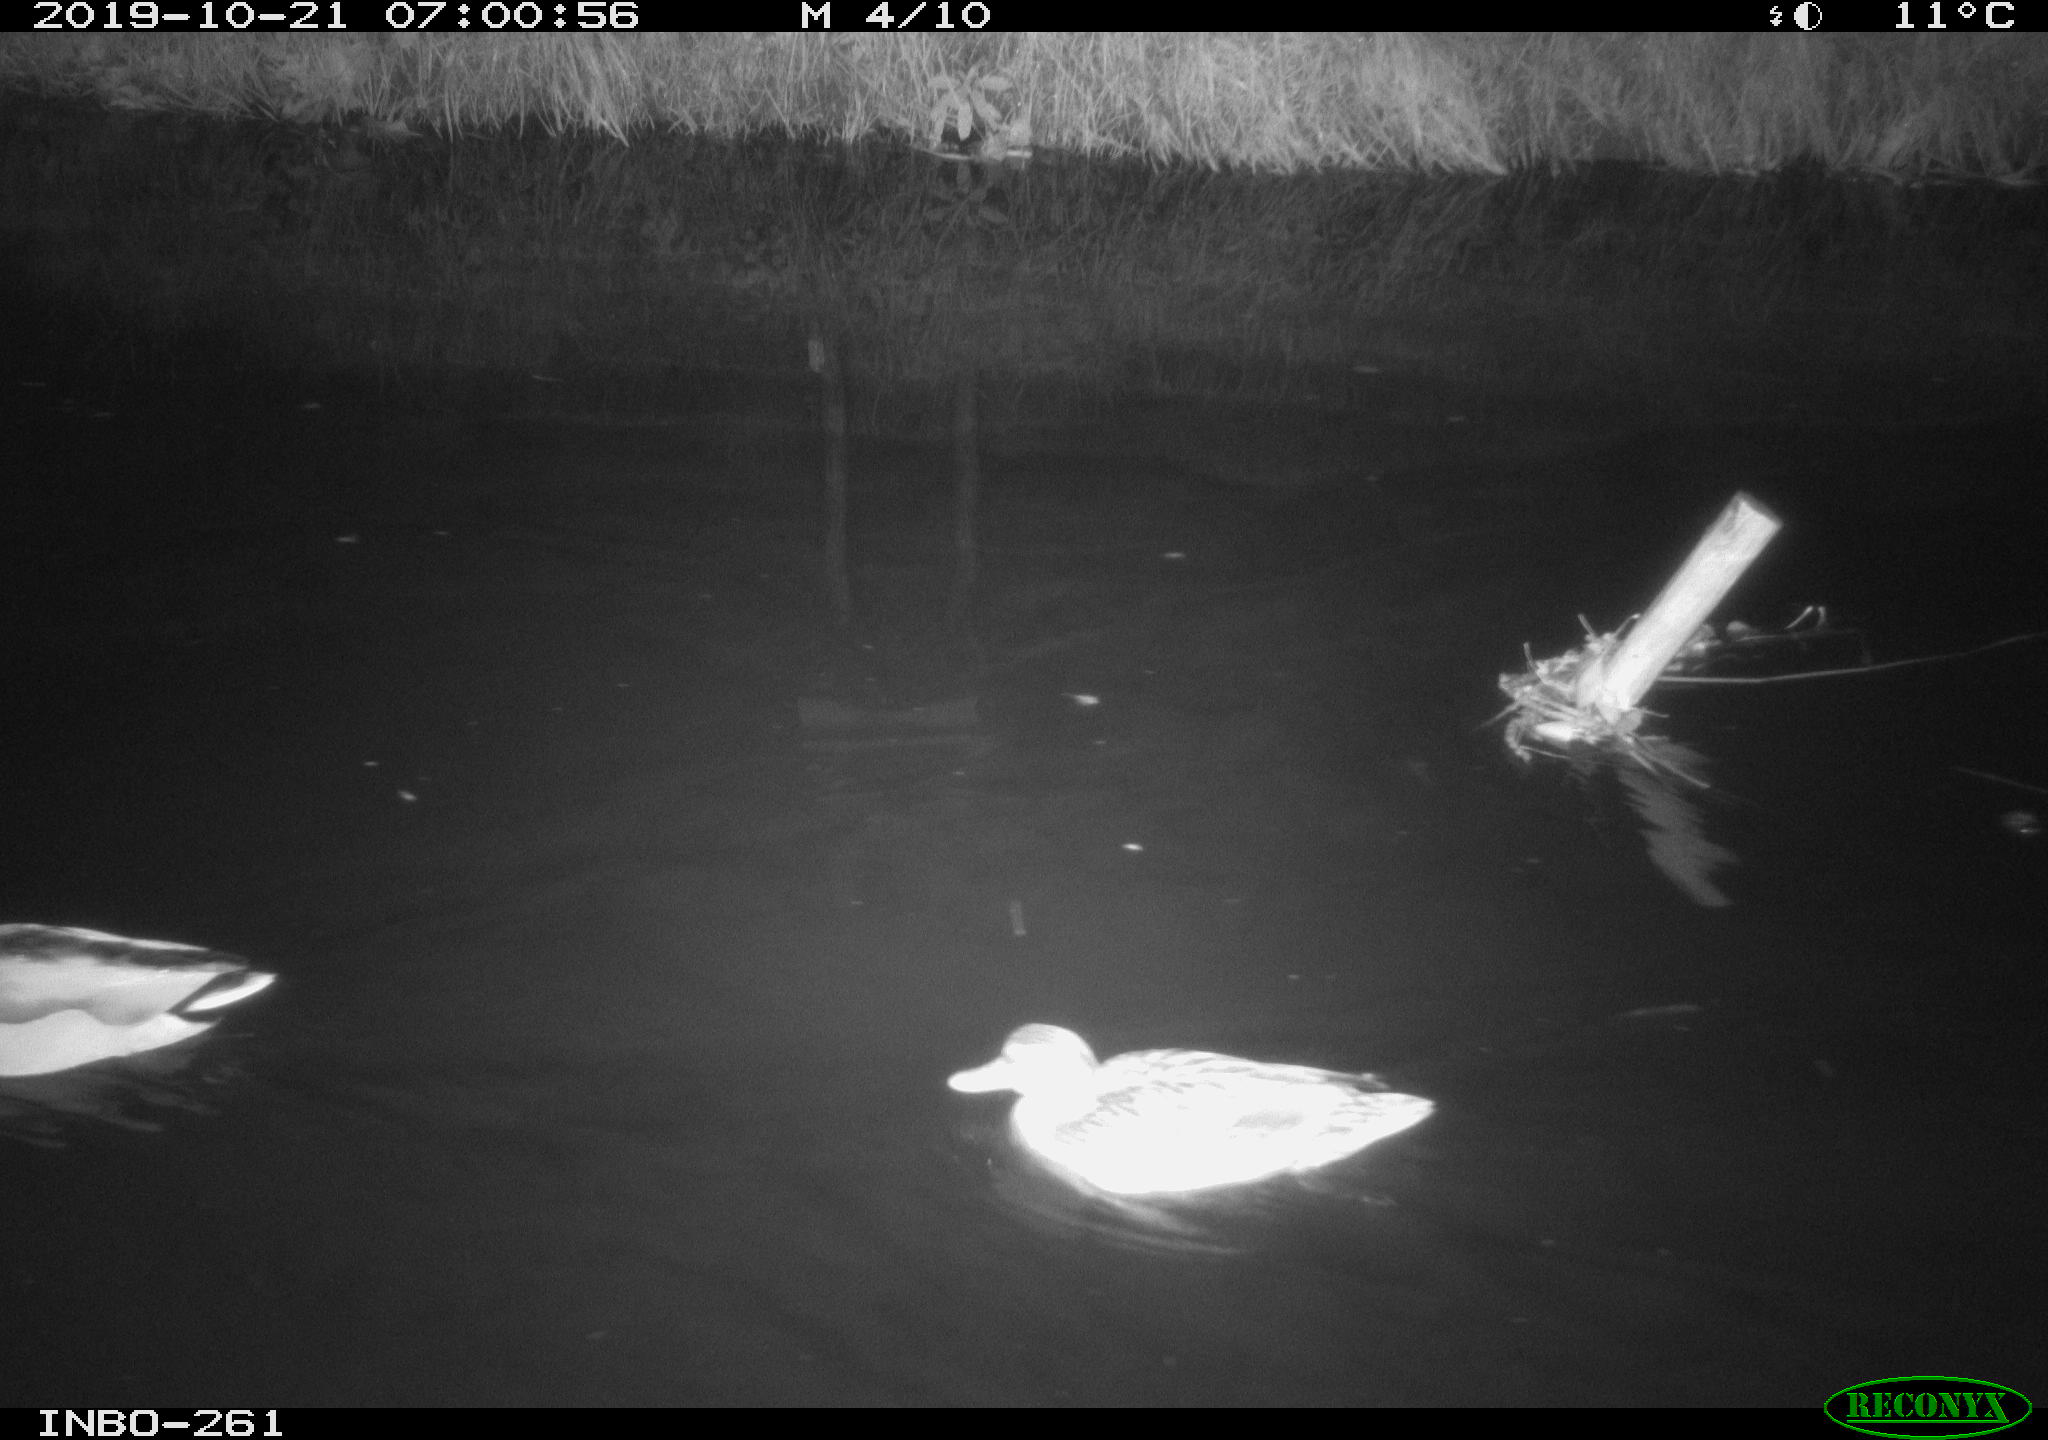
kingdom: Animalia
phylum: Chordata
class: Aves
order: Anseriformes
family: Anatidae
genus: Anas
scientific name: Anas platyrhynchos
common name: Mallard
